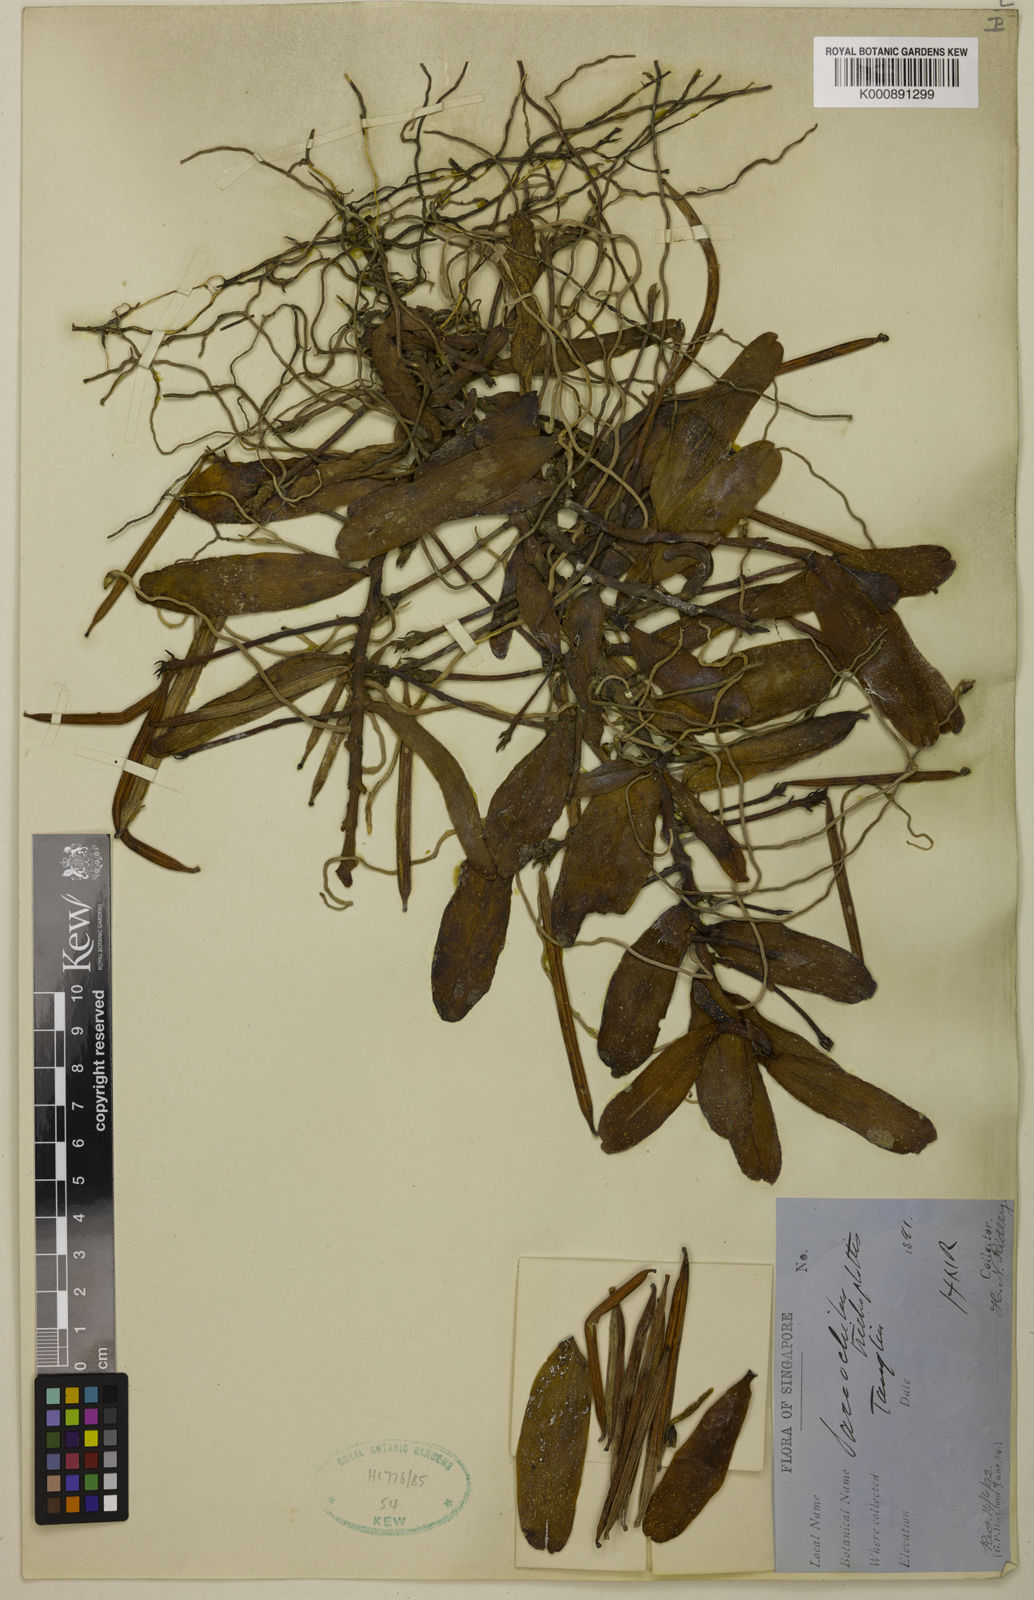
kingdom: Plantae
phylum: Tracheophyta
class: Liliopsida
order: Asparagales
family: Orchidaceae
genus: Thrixspermum
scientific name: Thrixspermum trichoglottis
